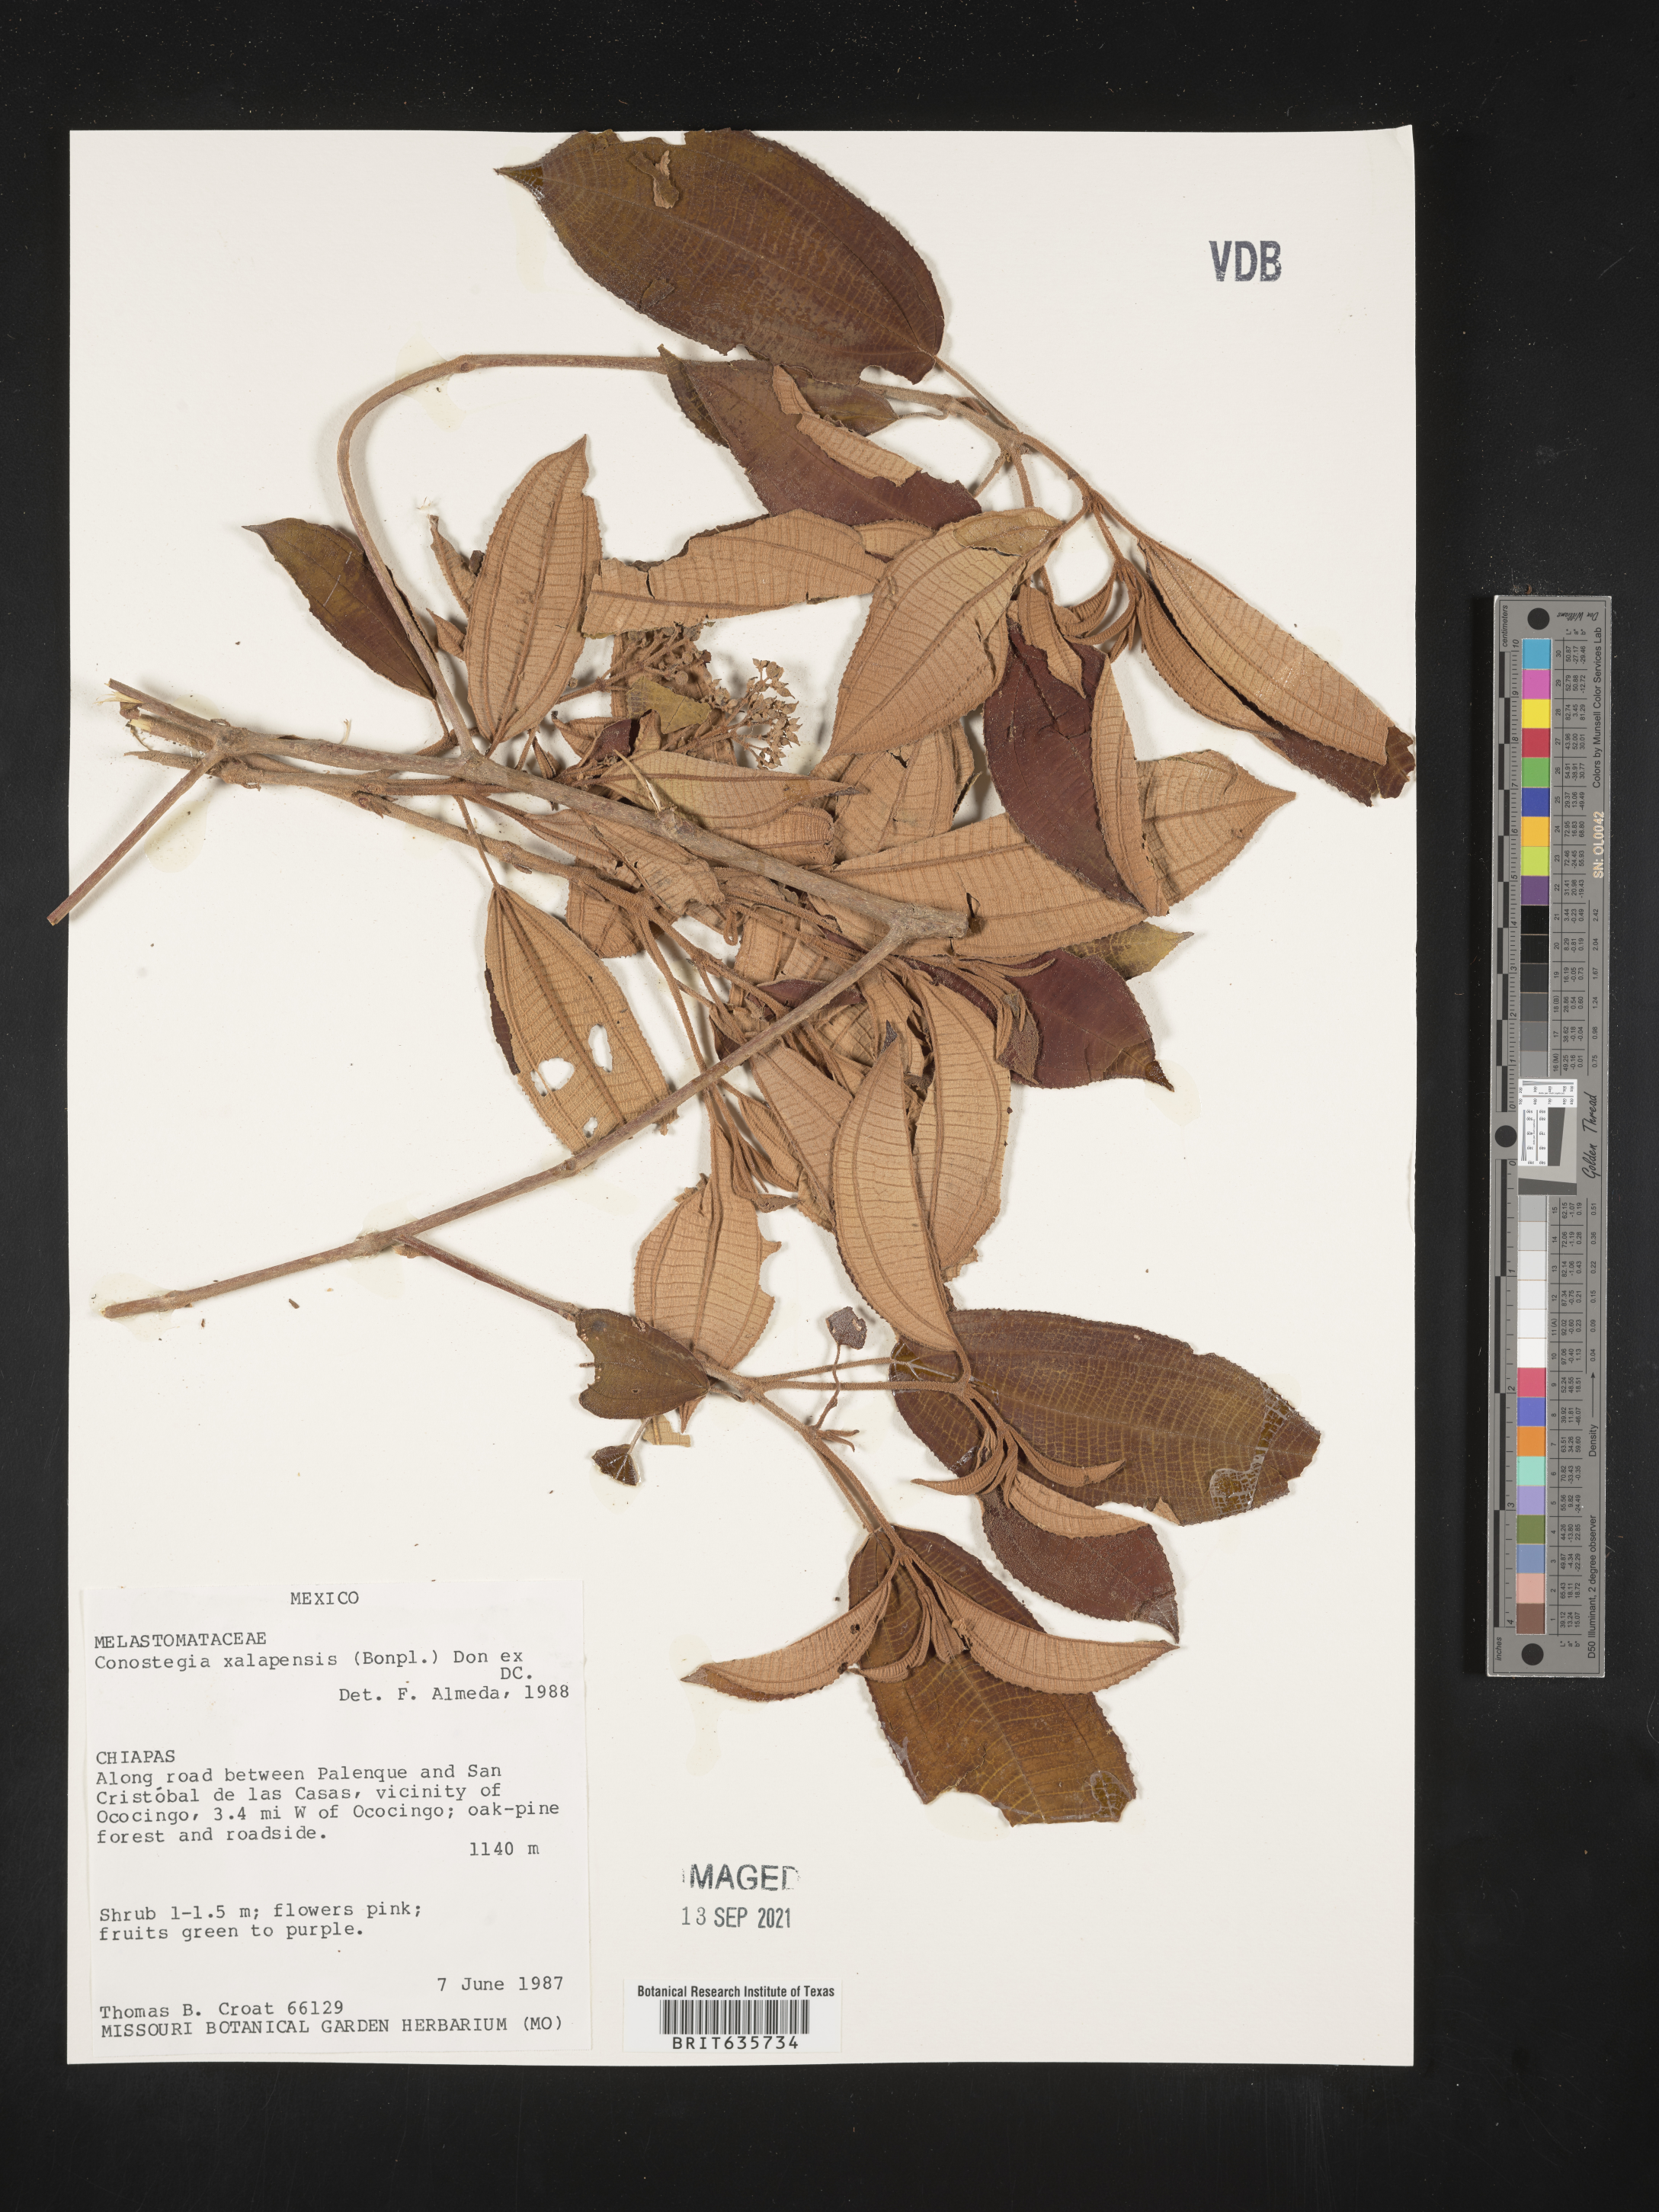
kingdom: Plantae
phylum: Tracheophyta
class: Magnoliopsida
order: Myrtales
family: Melastomataceae
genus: Miconia
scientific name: Miconia
